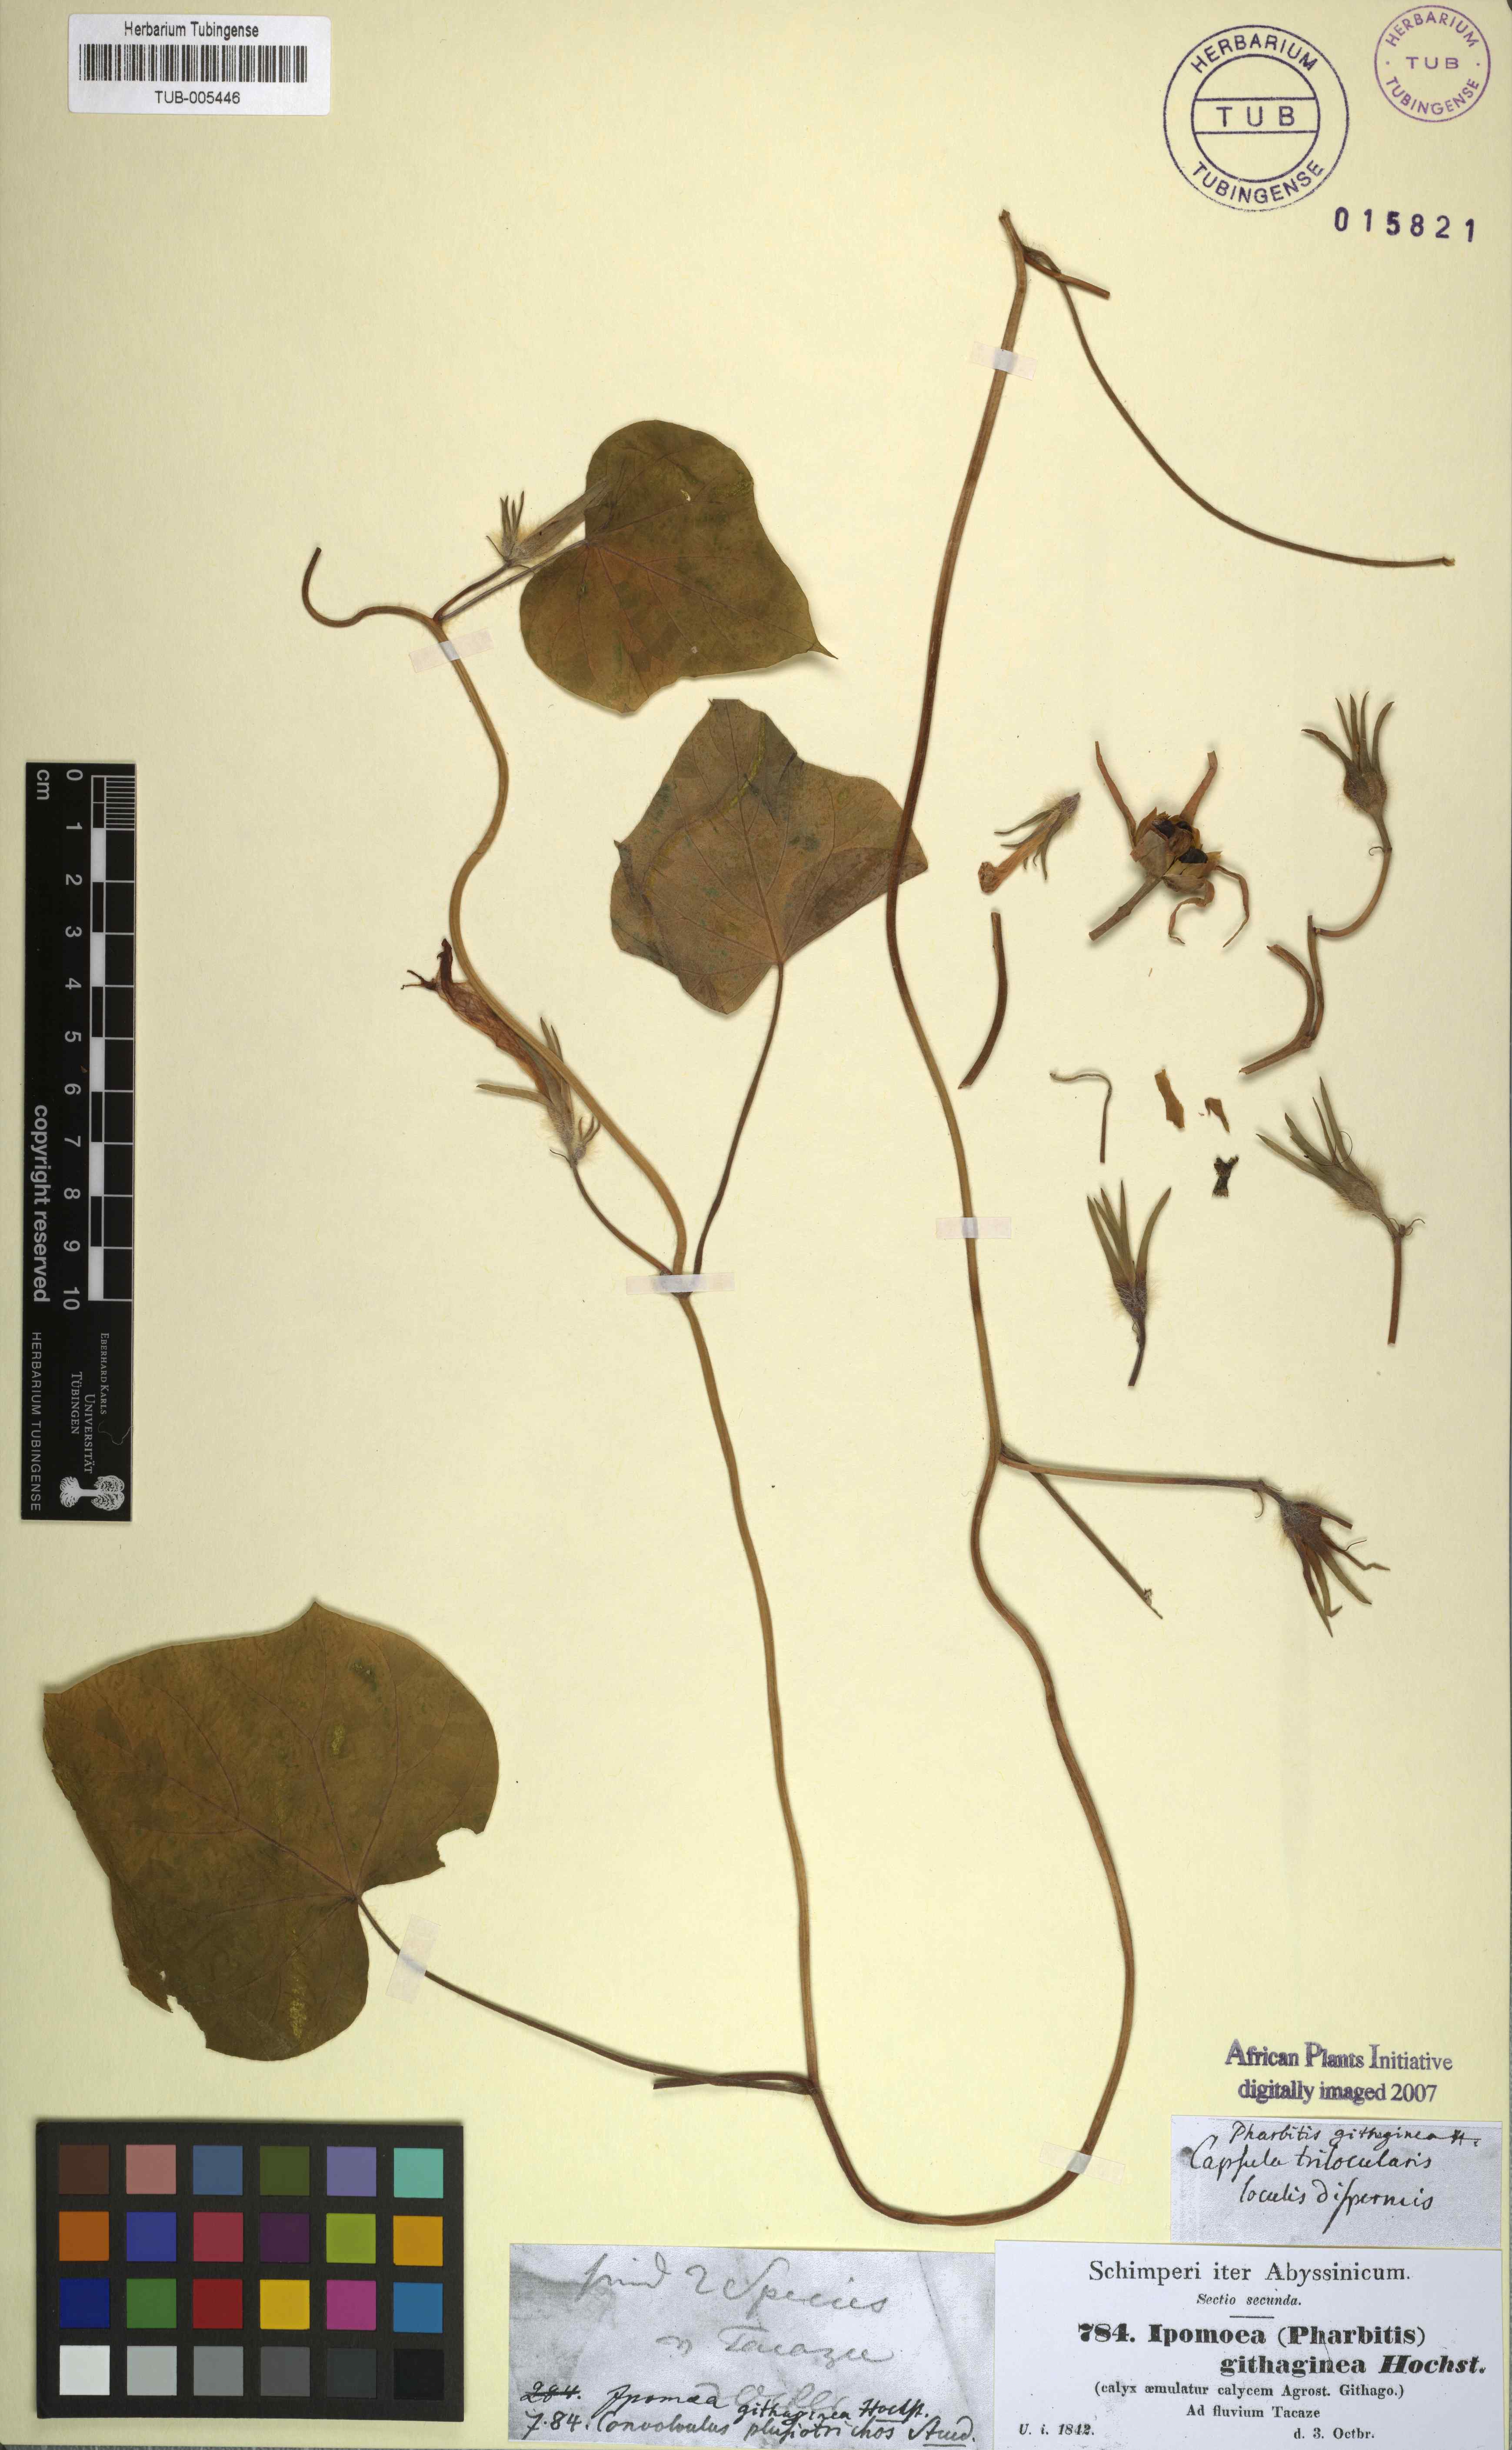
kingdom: Plantae
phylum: Tracheophyta
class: Magnoliopsida
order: Solanales
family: Convolvulaceae
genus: Ipomoea
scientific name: Ipomoea nil
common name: Japanese morning-glory
